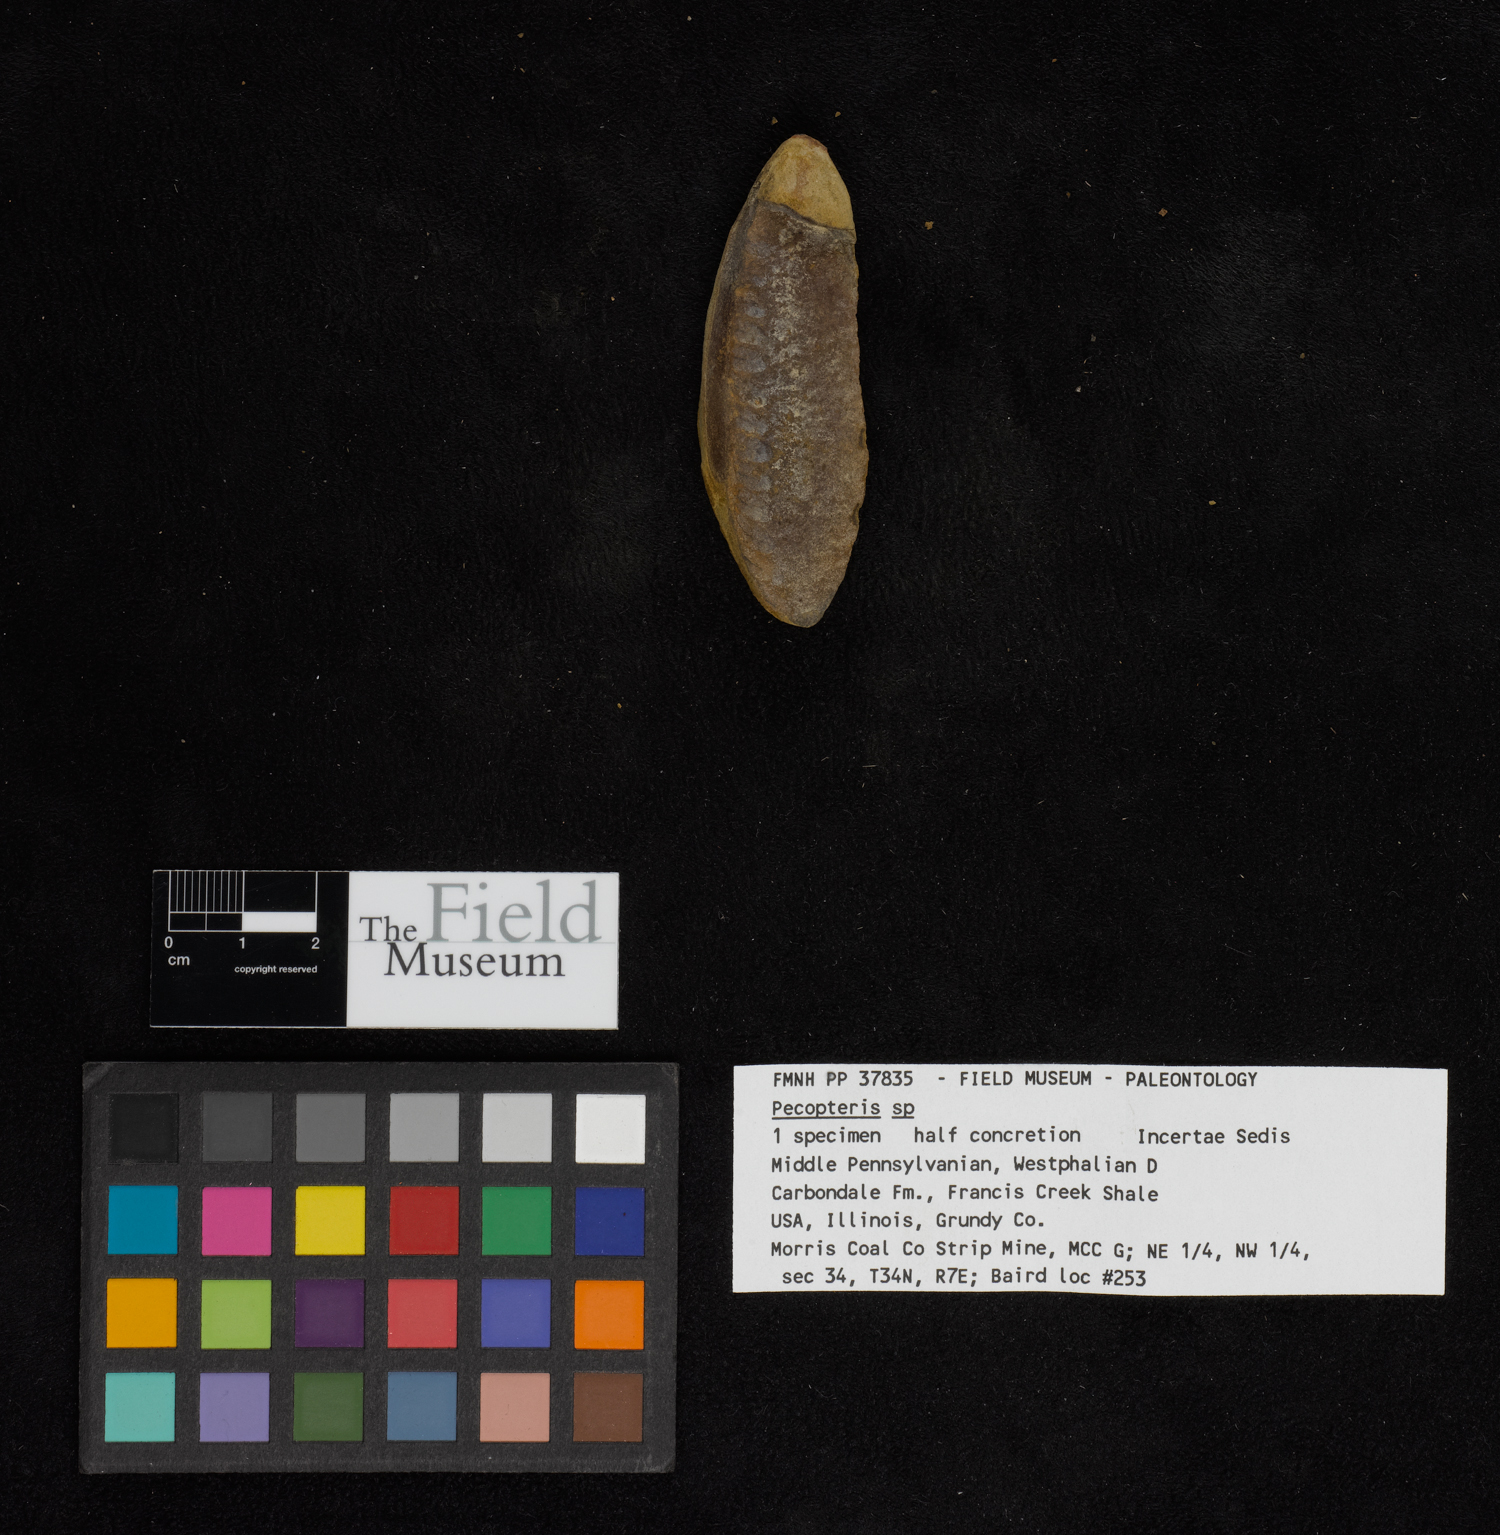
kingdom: Plantae
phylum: Tracheophyta
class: Polypodiopsida
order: Marattiales
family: Asterothecaceae
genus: Pecopteris
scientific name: Pecopteris
